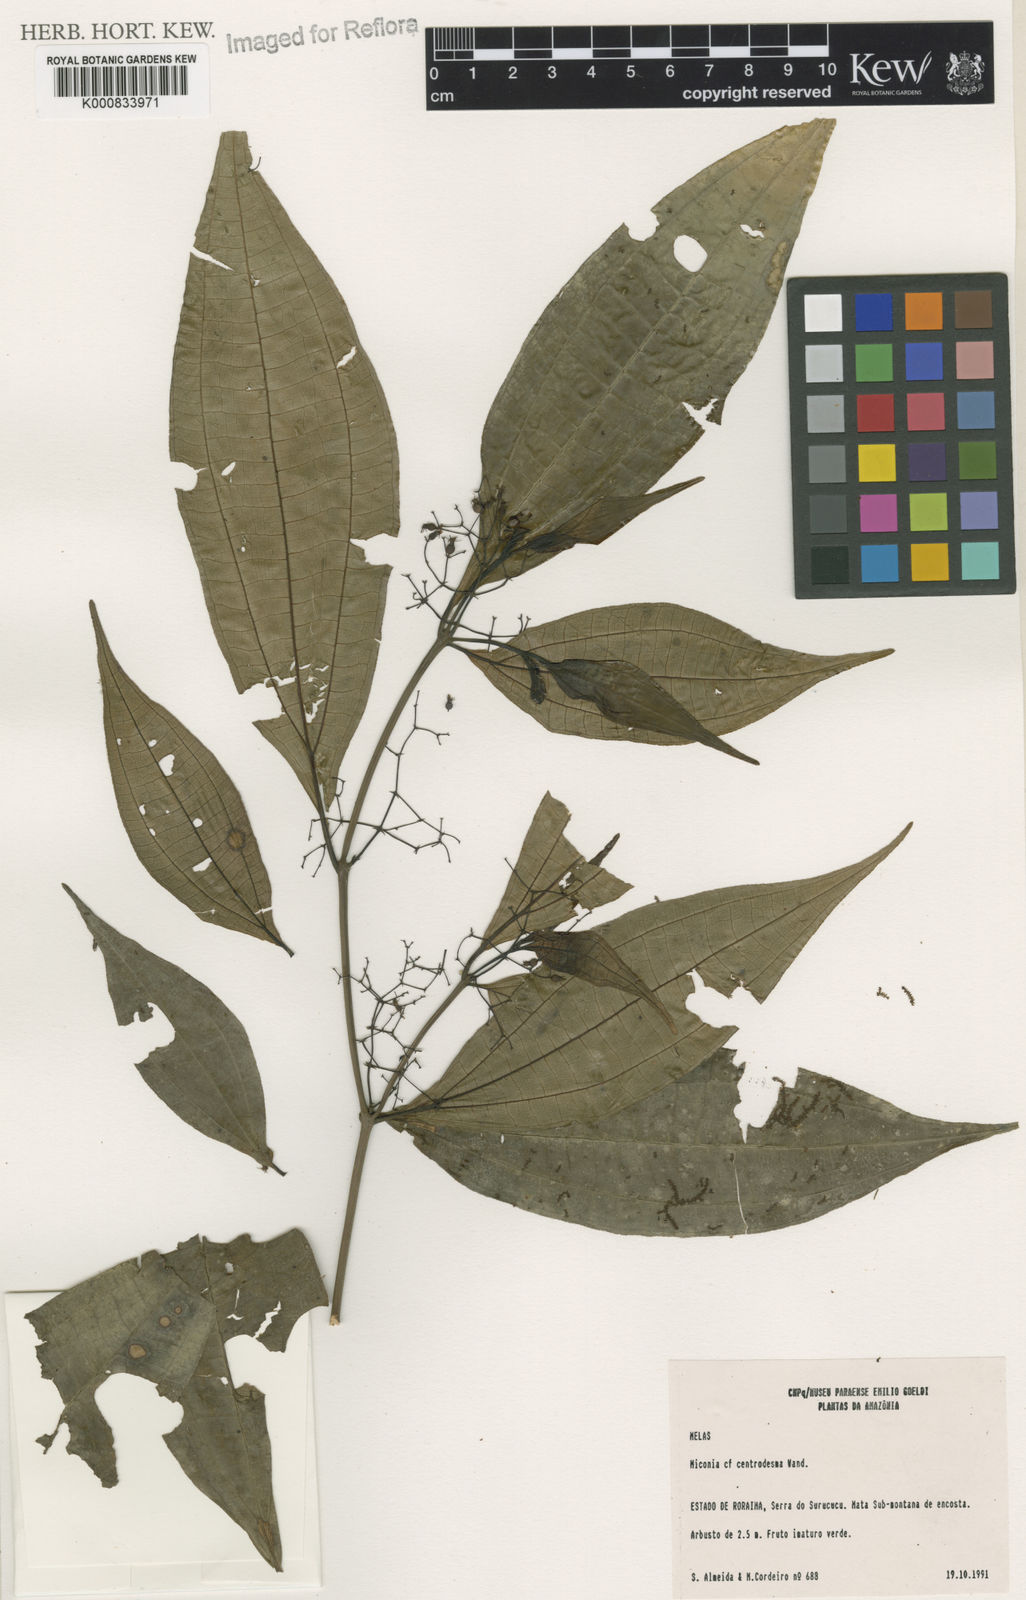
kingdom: Plantae
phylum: Tracheophyta
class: Magnoliopsida
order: Myrtales
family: Melastomataceae
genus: Miconia
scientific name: Miconia centrodesma
